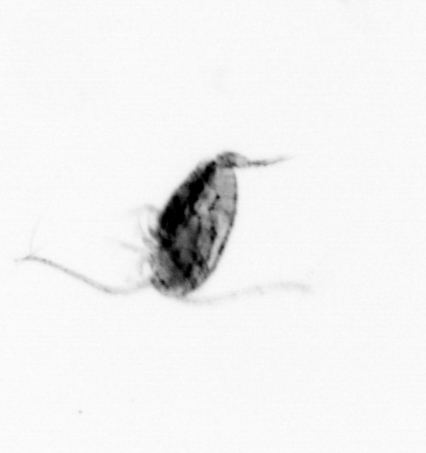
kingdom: Animalia
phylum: Arthropoda
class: Copepoda
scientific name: Copepoda
